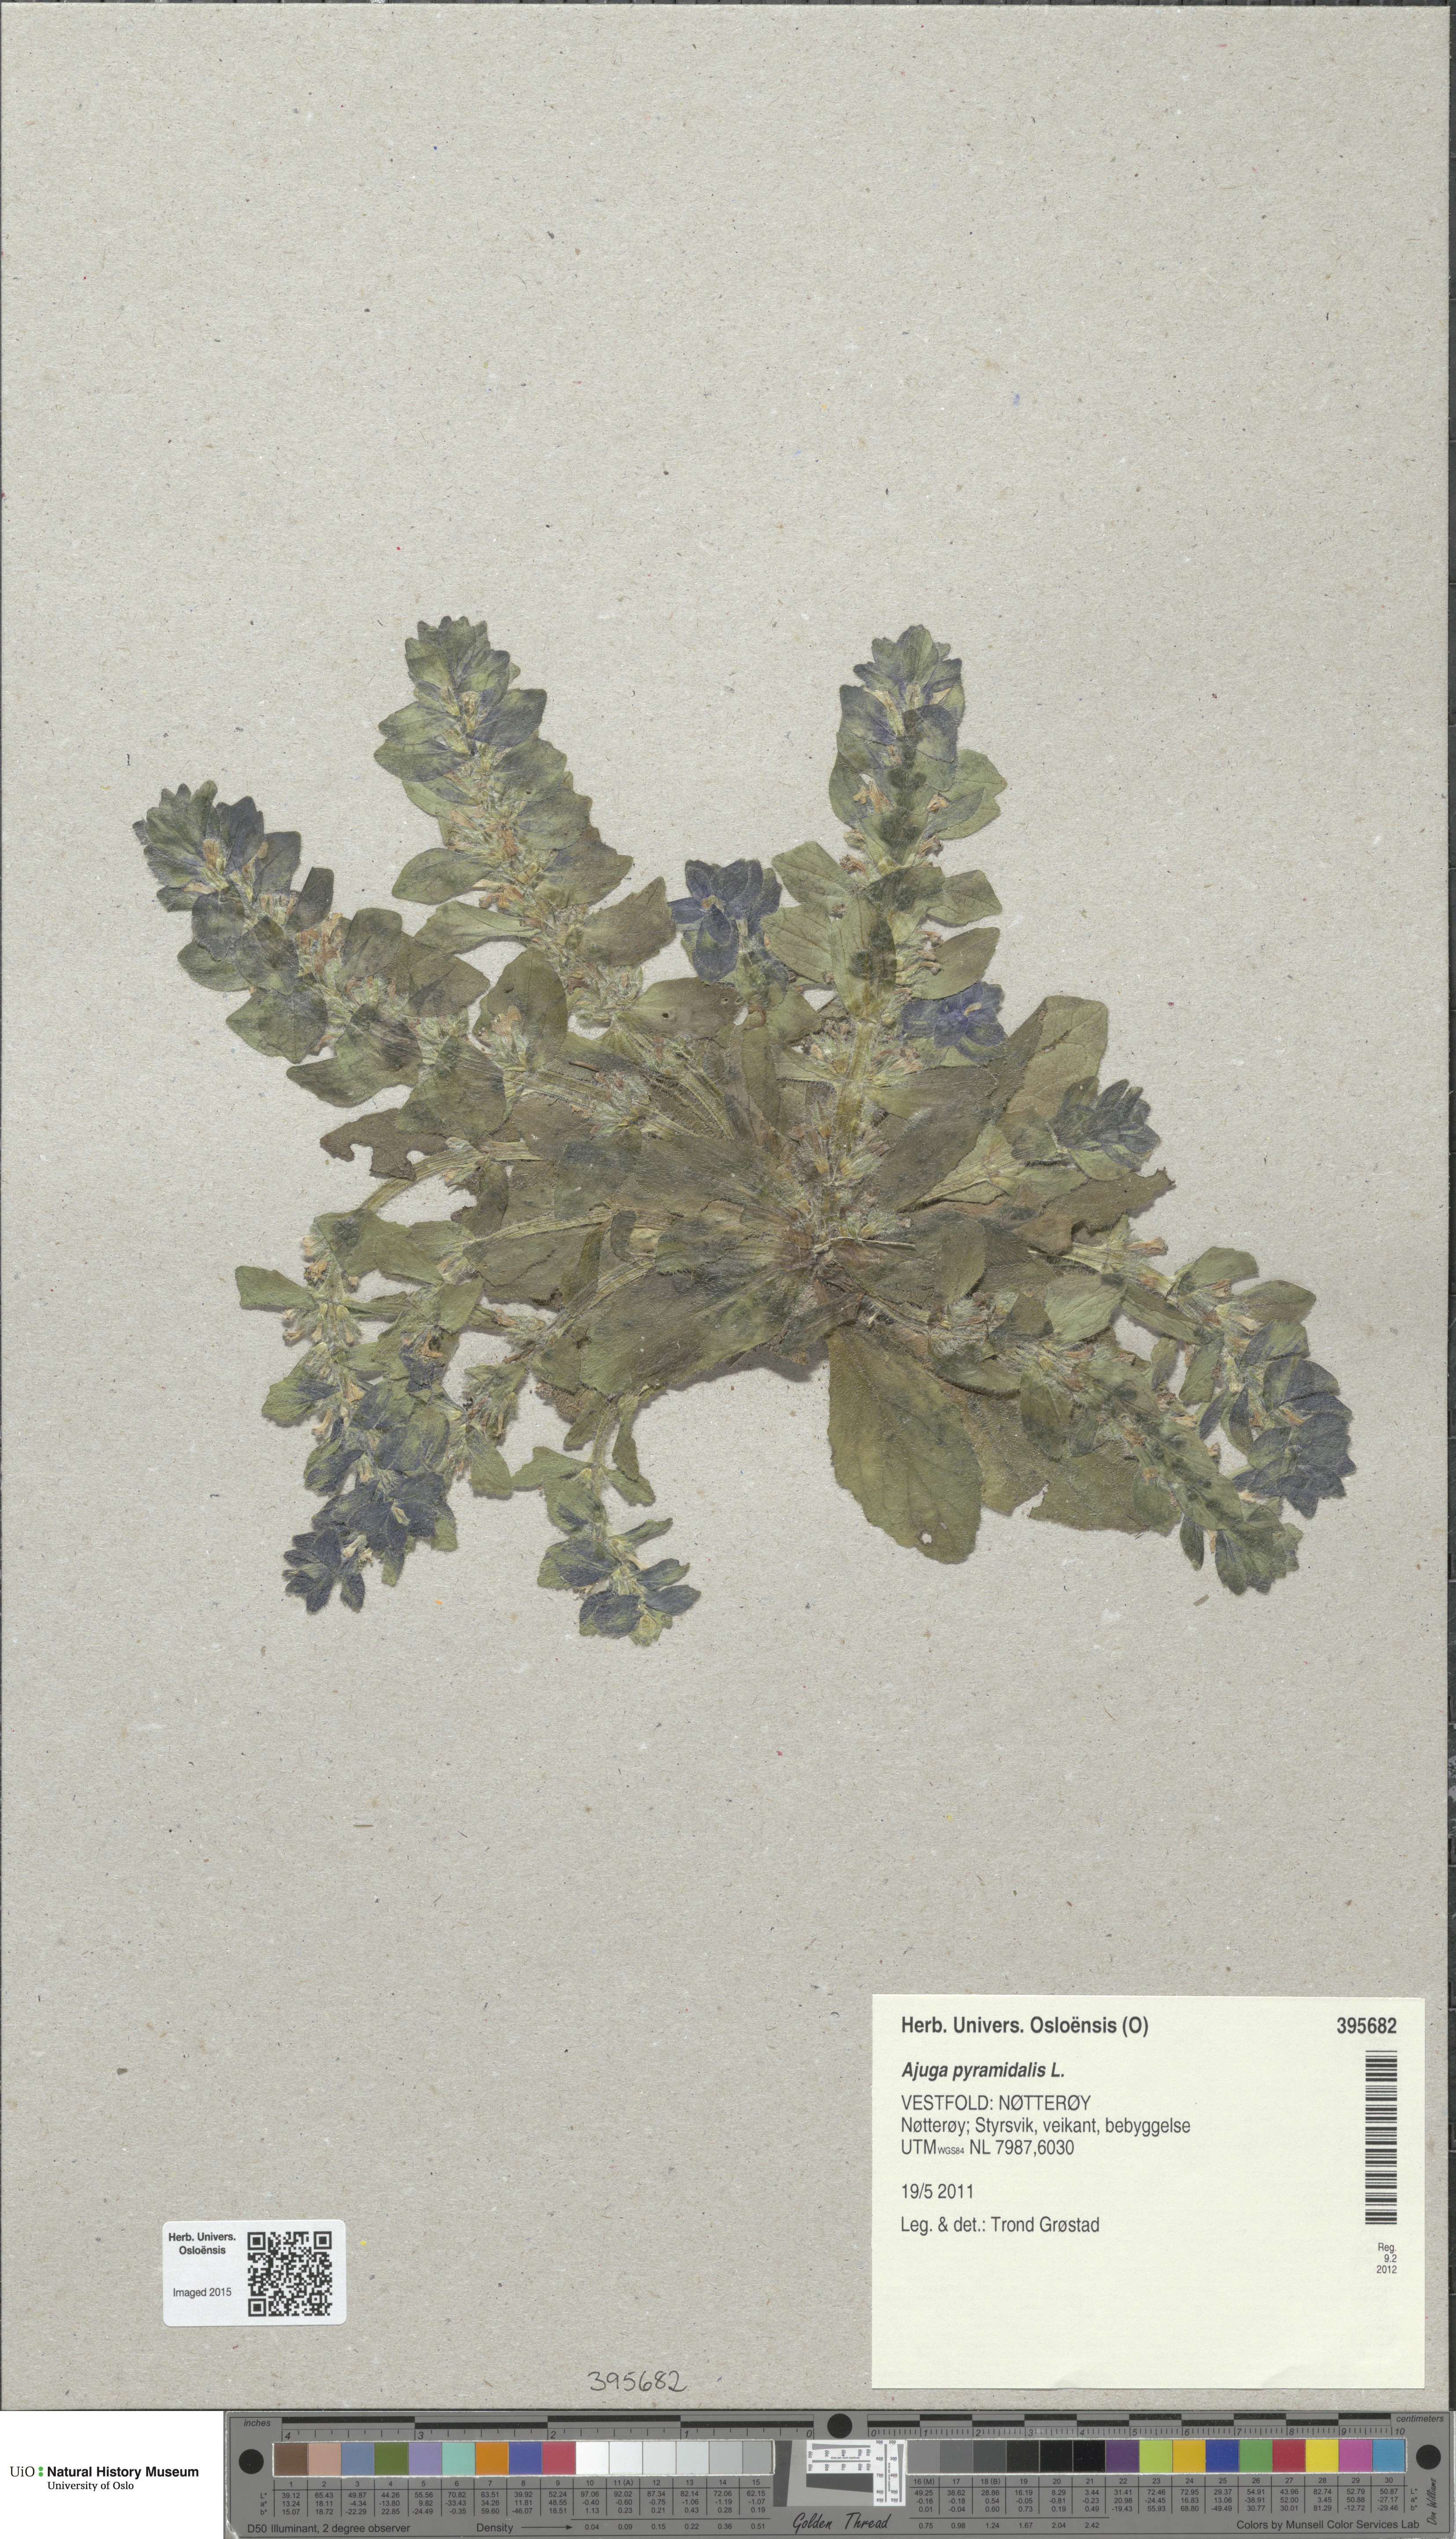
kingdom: Plantae
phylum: Tracheophyta
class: Magnoliopsida
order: Lamiales
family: Lamiaceae
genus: Ajuga
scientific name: Ajuga pyramidalis
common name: Pyramid bugle
